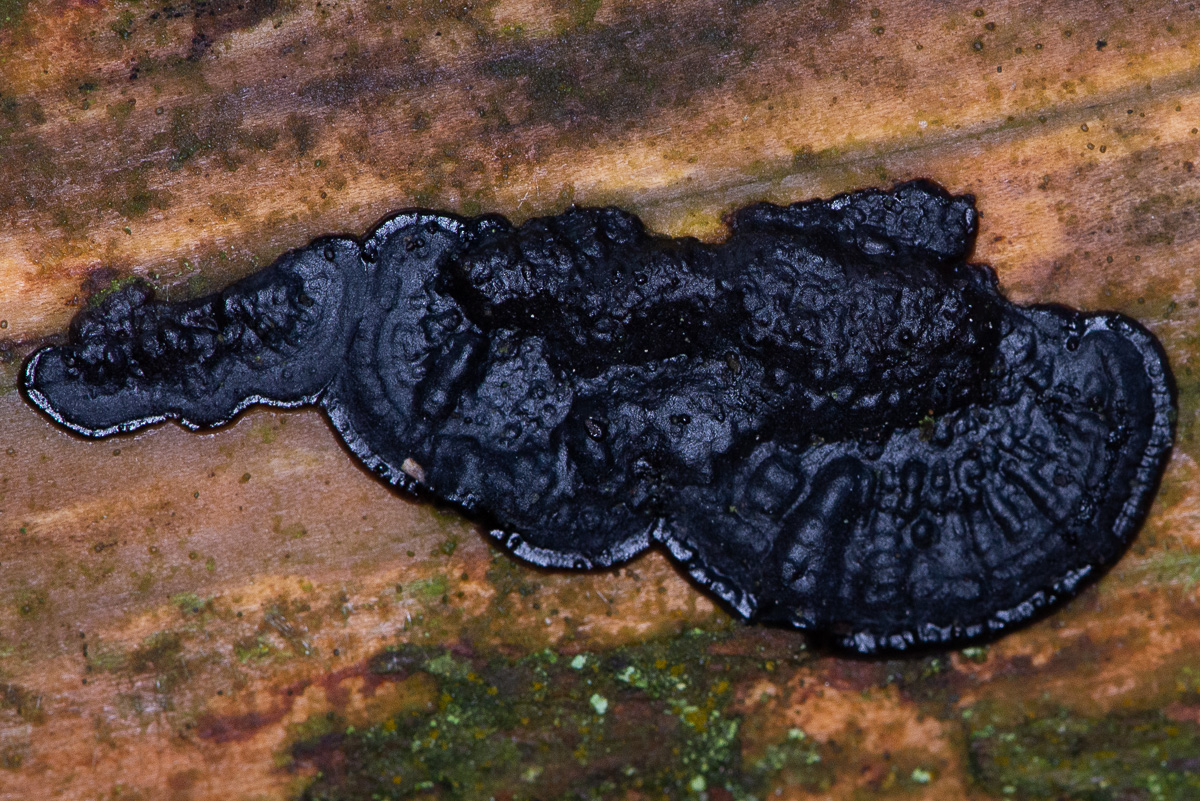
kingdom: Fungi
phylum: Basidiomycota
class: Agaricomycetes
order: Auriculariales
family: Auriculariaceae
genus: Exidia
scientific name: Exidia pithya
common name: gran-bævretop
